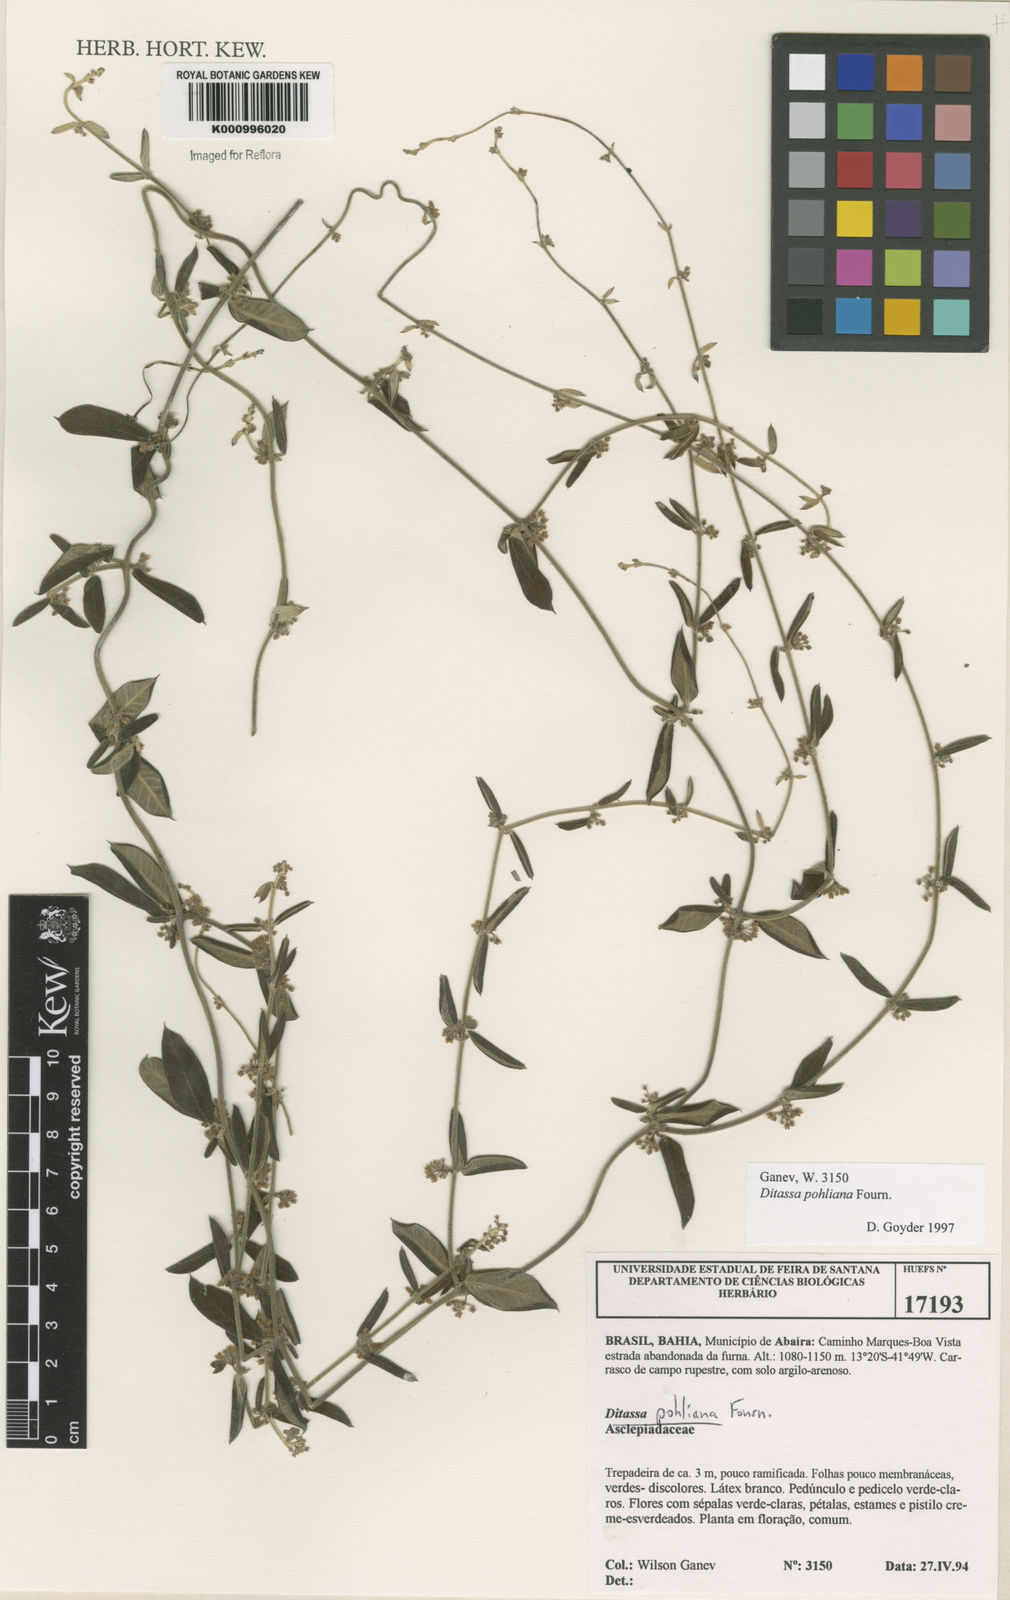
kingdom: Plantae
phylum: Tracheophyta
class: Magnoliopsida
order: Gentianales
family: Apocynaceae
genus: Ditassa
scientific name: Ditassa pohliana
